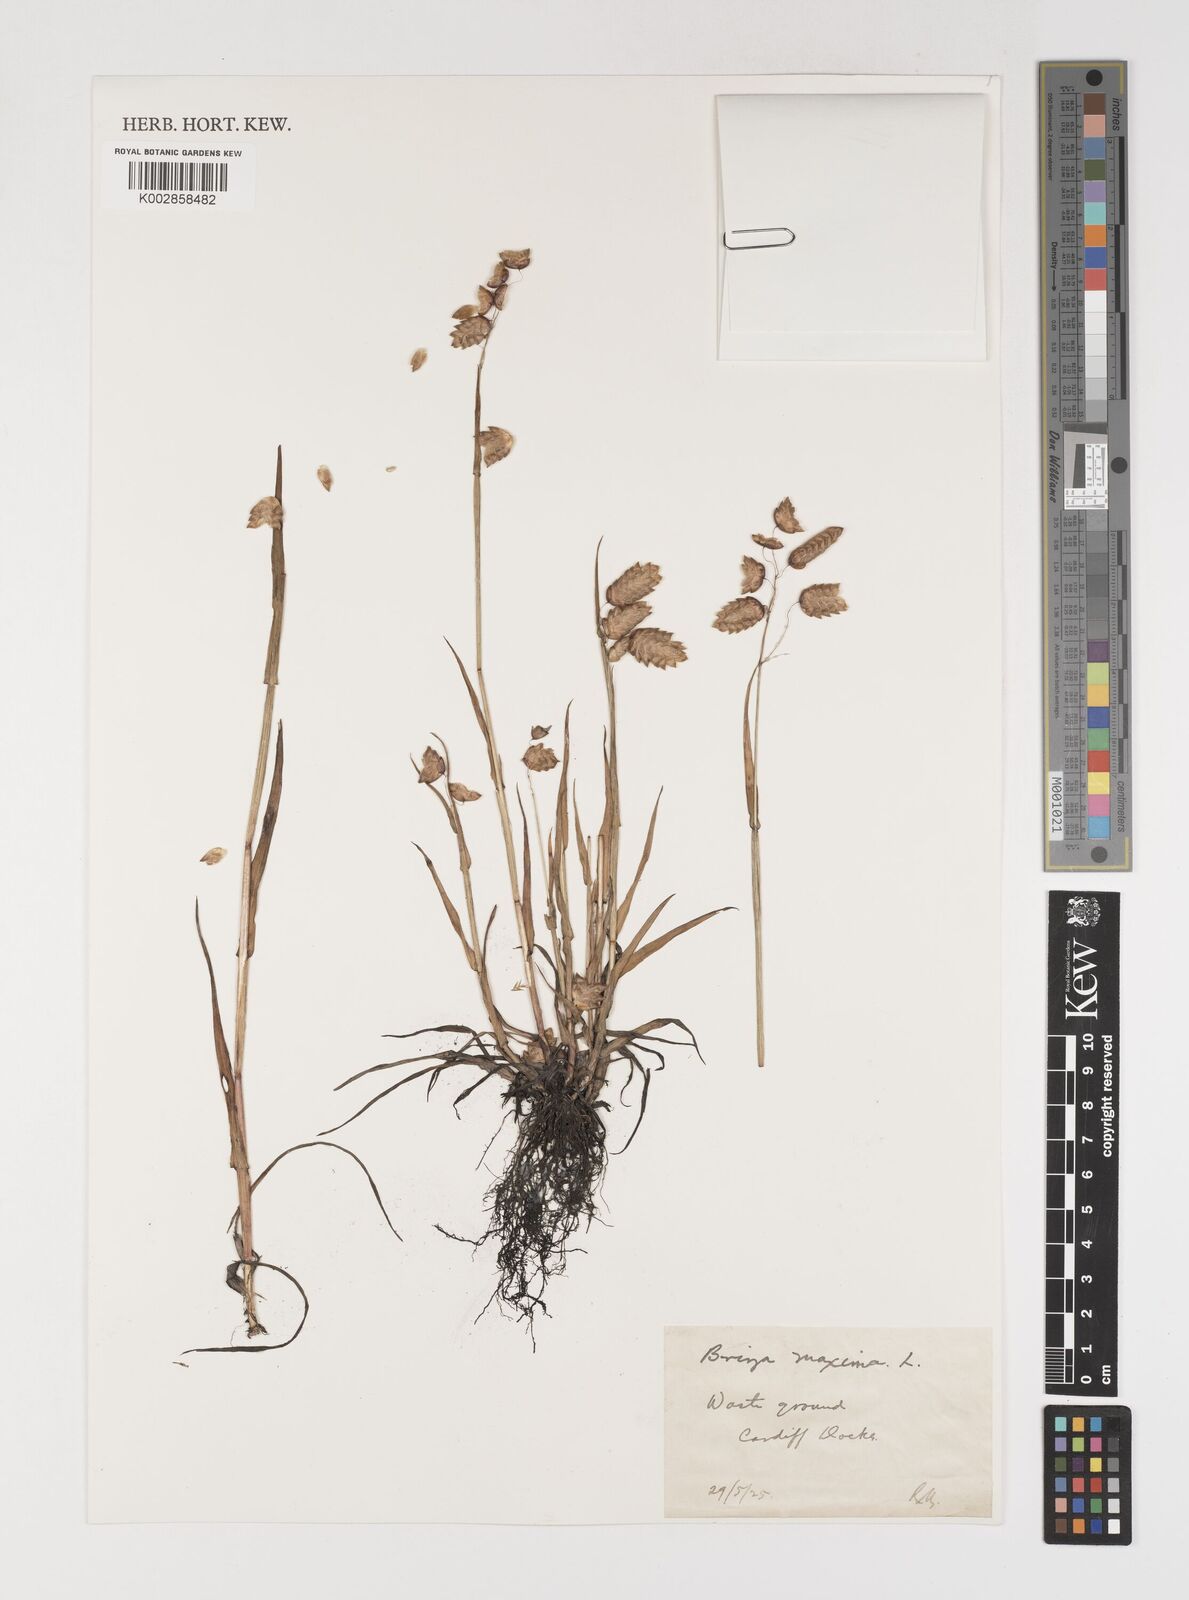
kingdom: Plantae
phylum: Tracheophyta
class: Liliopsida
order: Poales
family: Poaceae
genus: Briza
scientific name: Briza maxima
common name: Big quakinggrass
